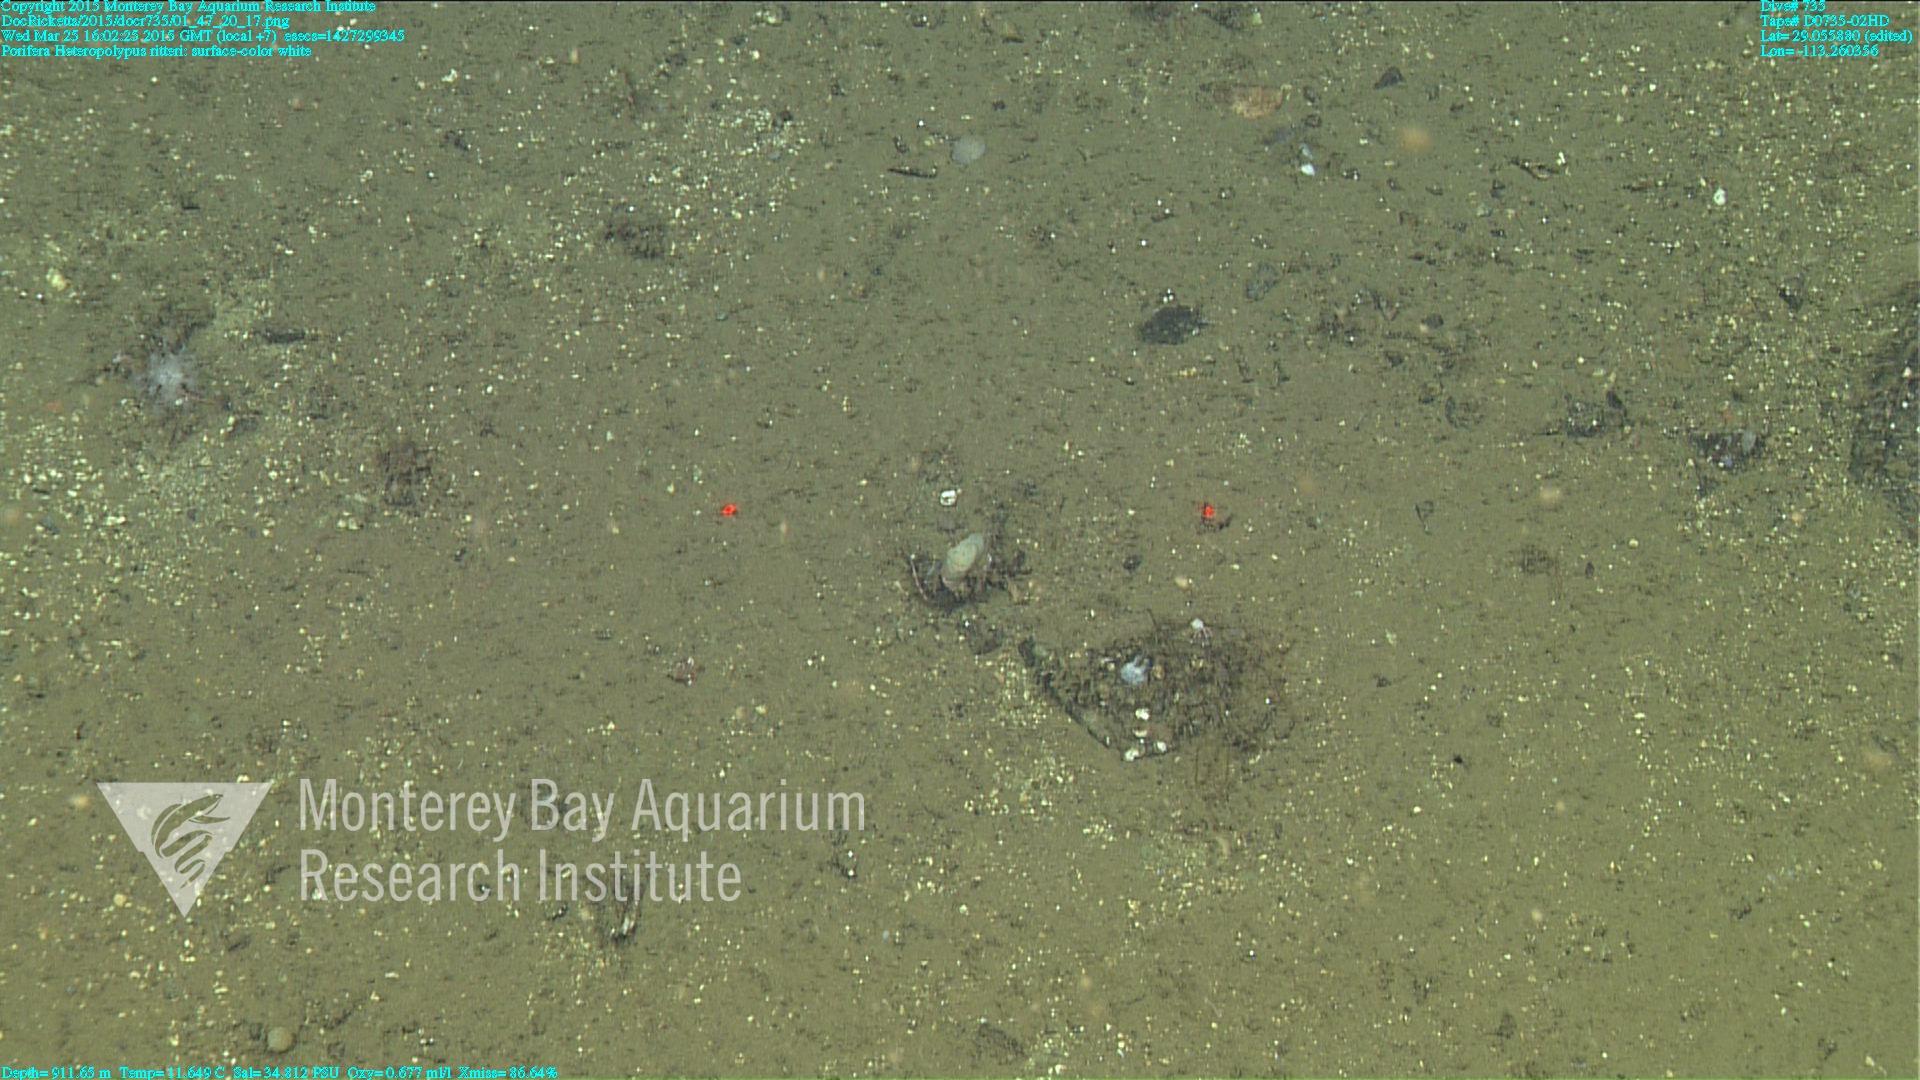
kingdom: Animalia
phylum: Cnidaria
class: Anthozoa
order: Scleralcyonacea
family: Coralliidae
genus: Heteropolypus
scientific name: Heteropolypus ritteri
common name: Ritter's soft coral
